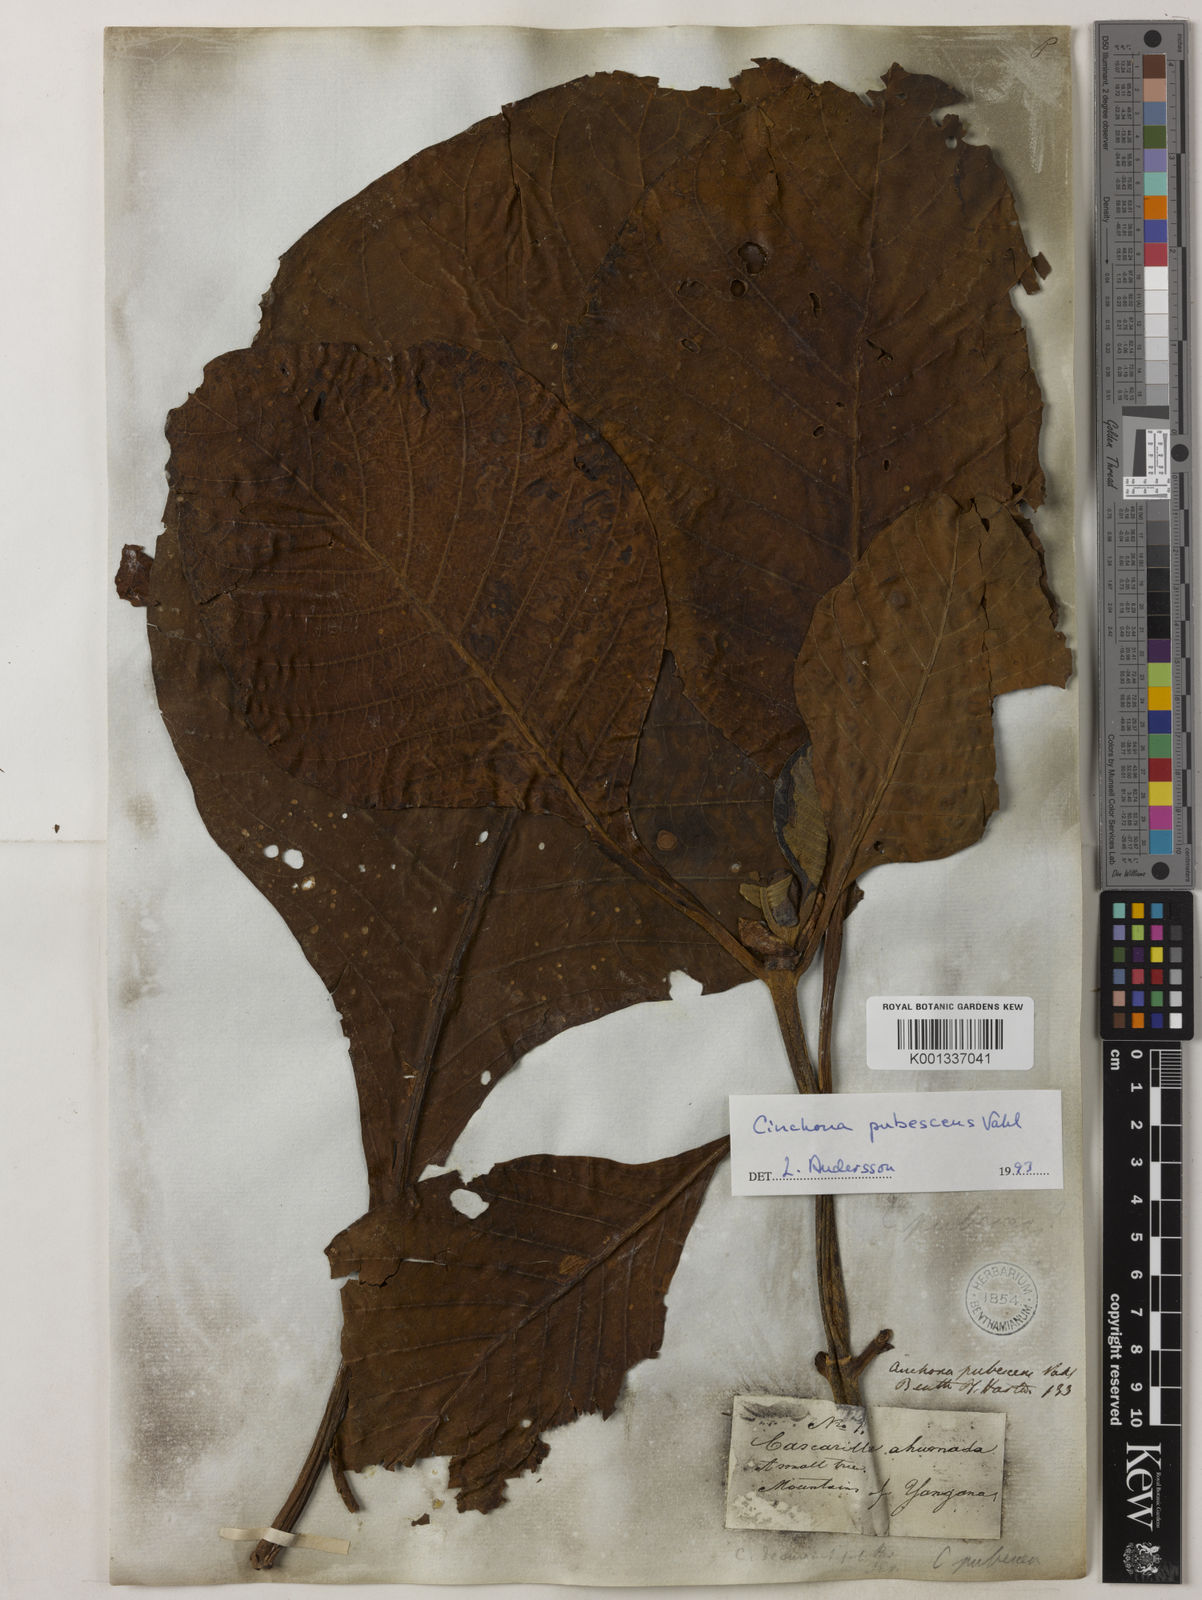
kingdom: Plantae
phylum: Tracheophyta
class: Magnoliopsida
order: Gentianales
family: Rubiaceae
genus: Cinchona
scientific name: Cinchona pubescens
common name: Quinine
